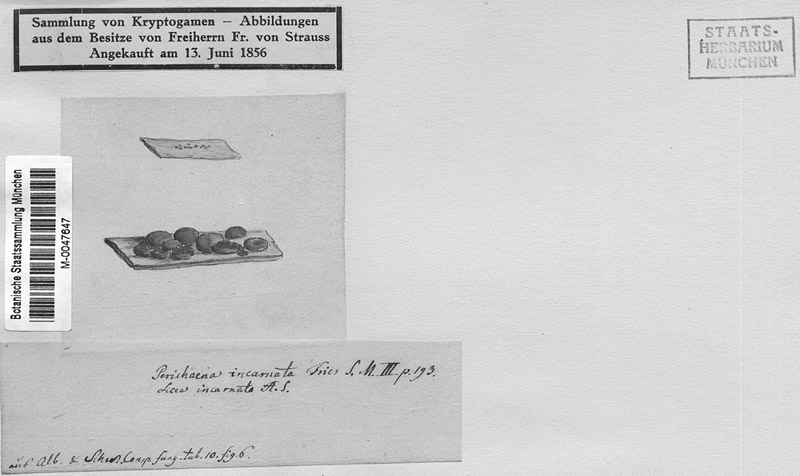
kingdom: Protozoa
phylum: Mycetozoa
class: Myxomycetes
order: Trichiales
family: Arcyriaceae
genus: Arcyodes
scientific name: Arcyodes incarnata
